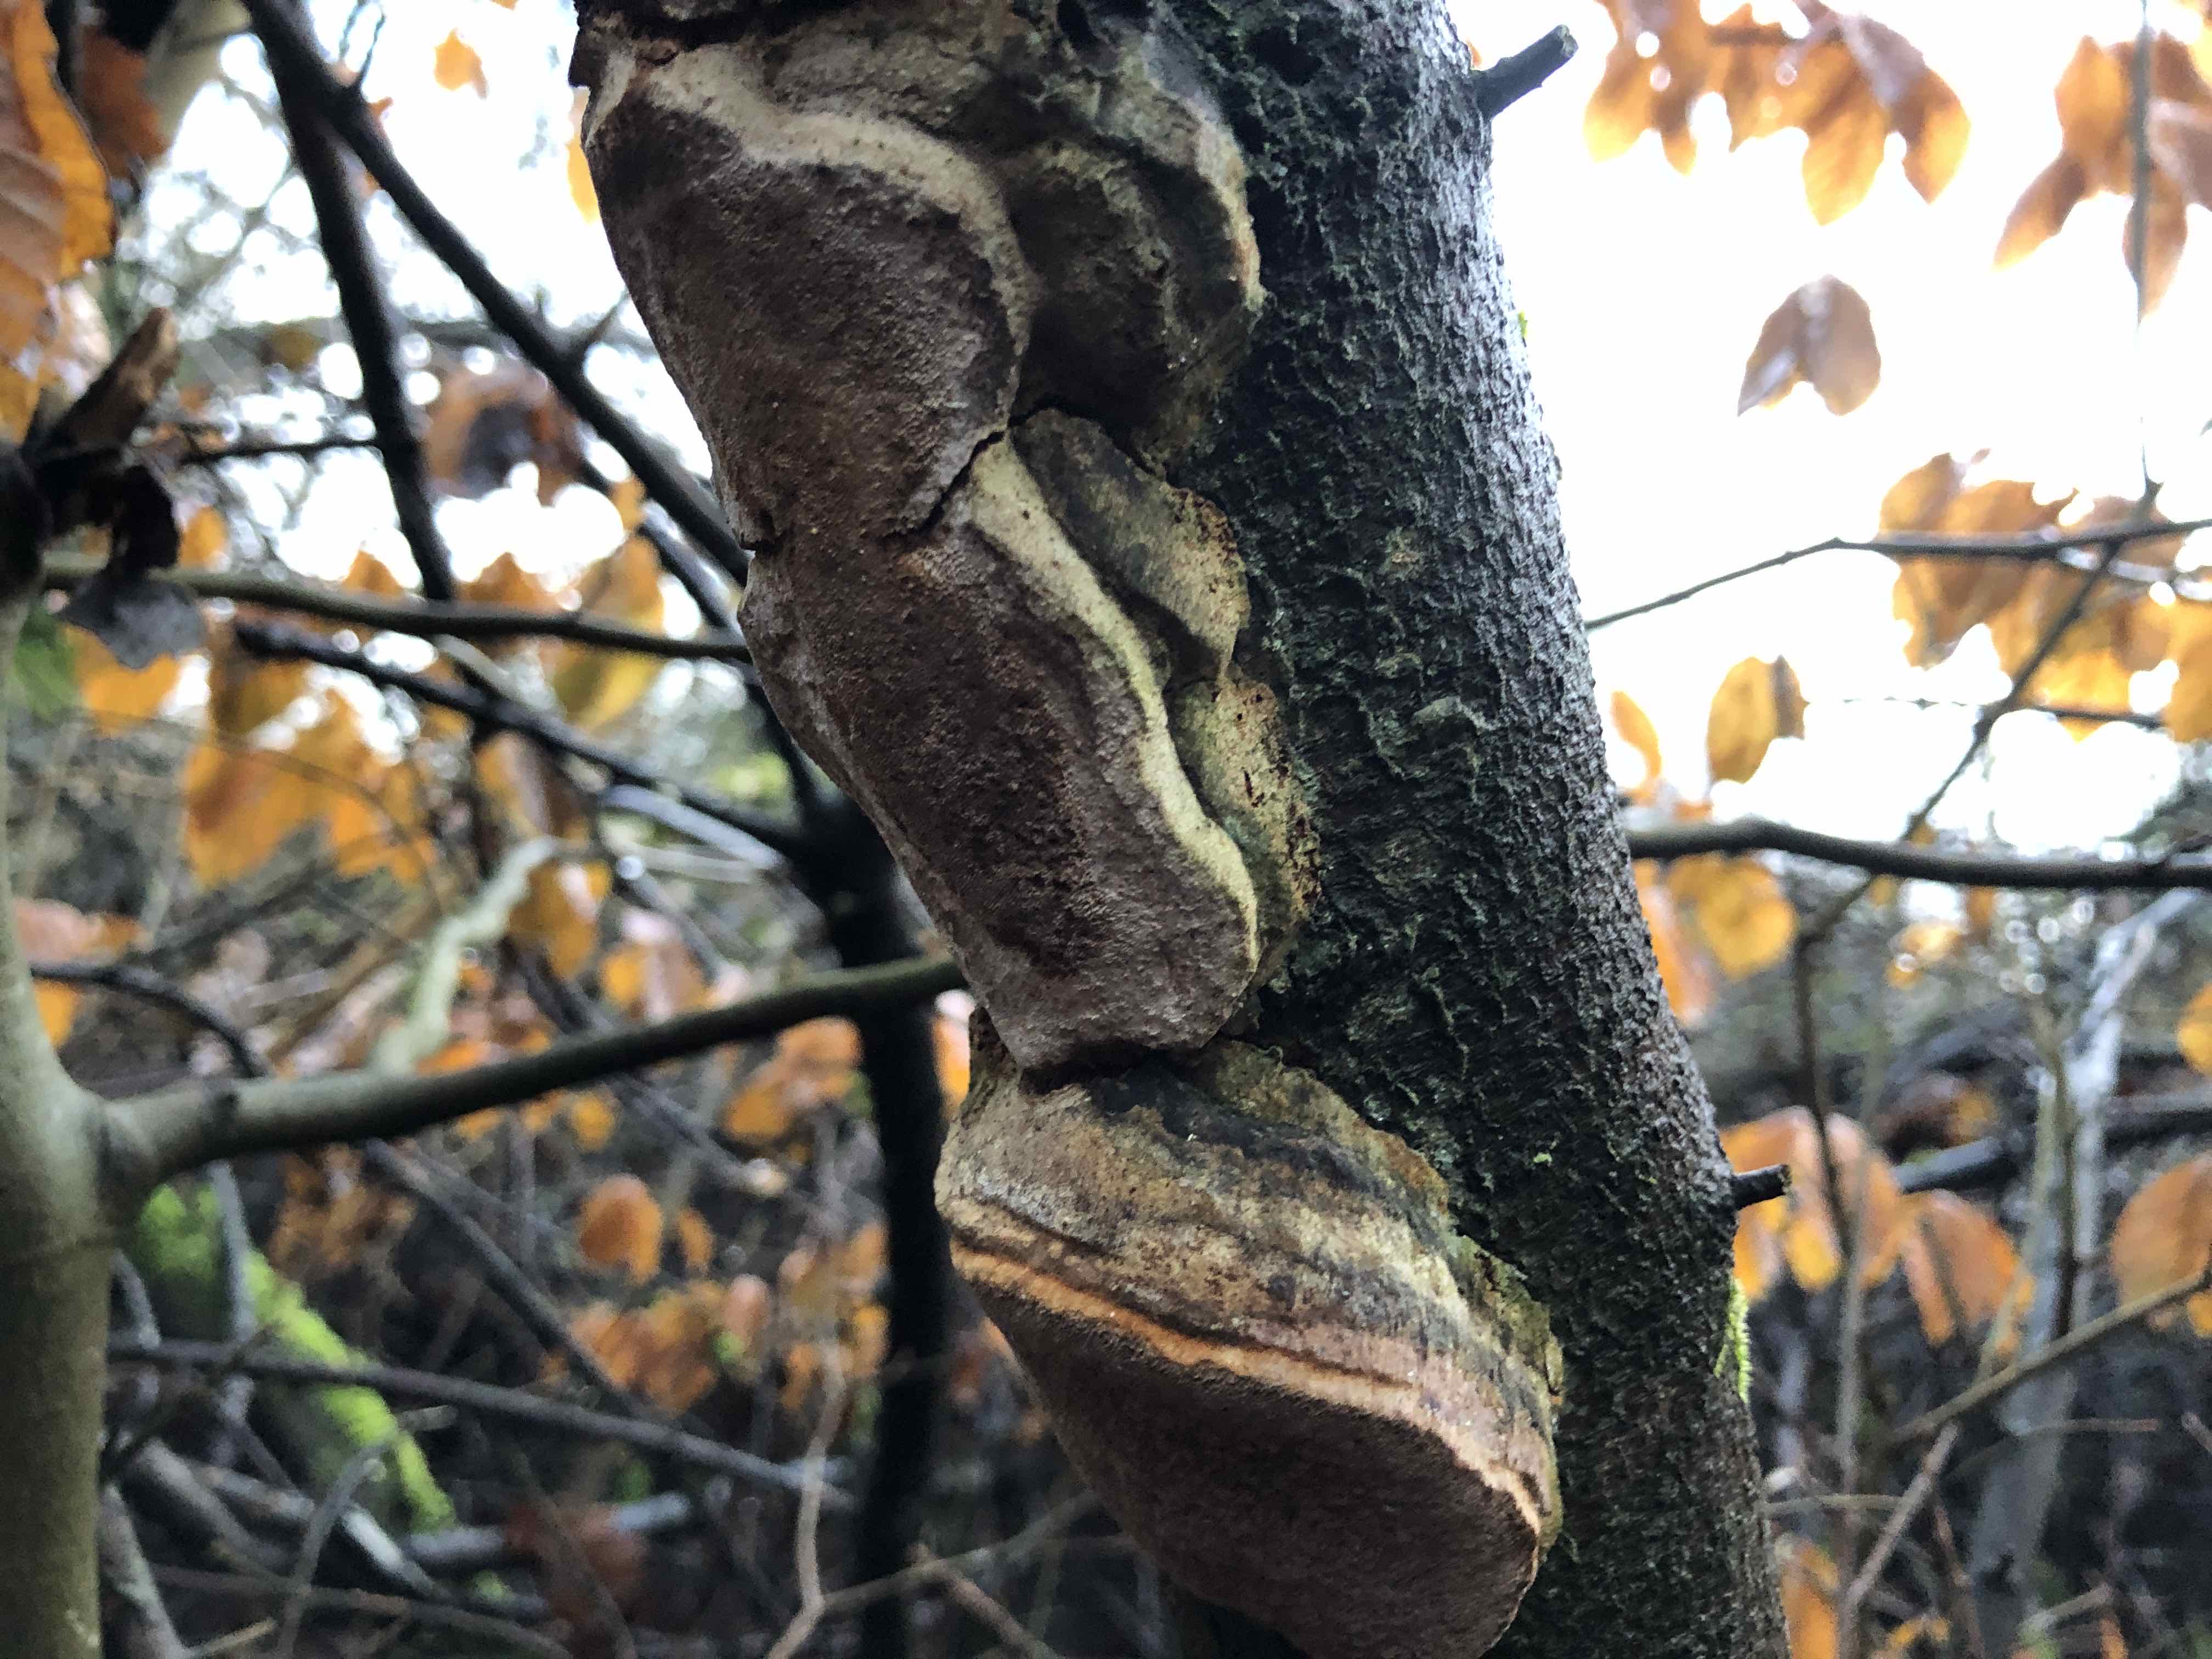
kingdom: Fungi
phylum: Basidiomycota
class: Agaricomycetes
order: Hymenochaetales
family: Hymenochaetaceae
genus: Phellinus
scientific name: Phellinus pomaceus
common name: blomme-ildporesvamp
